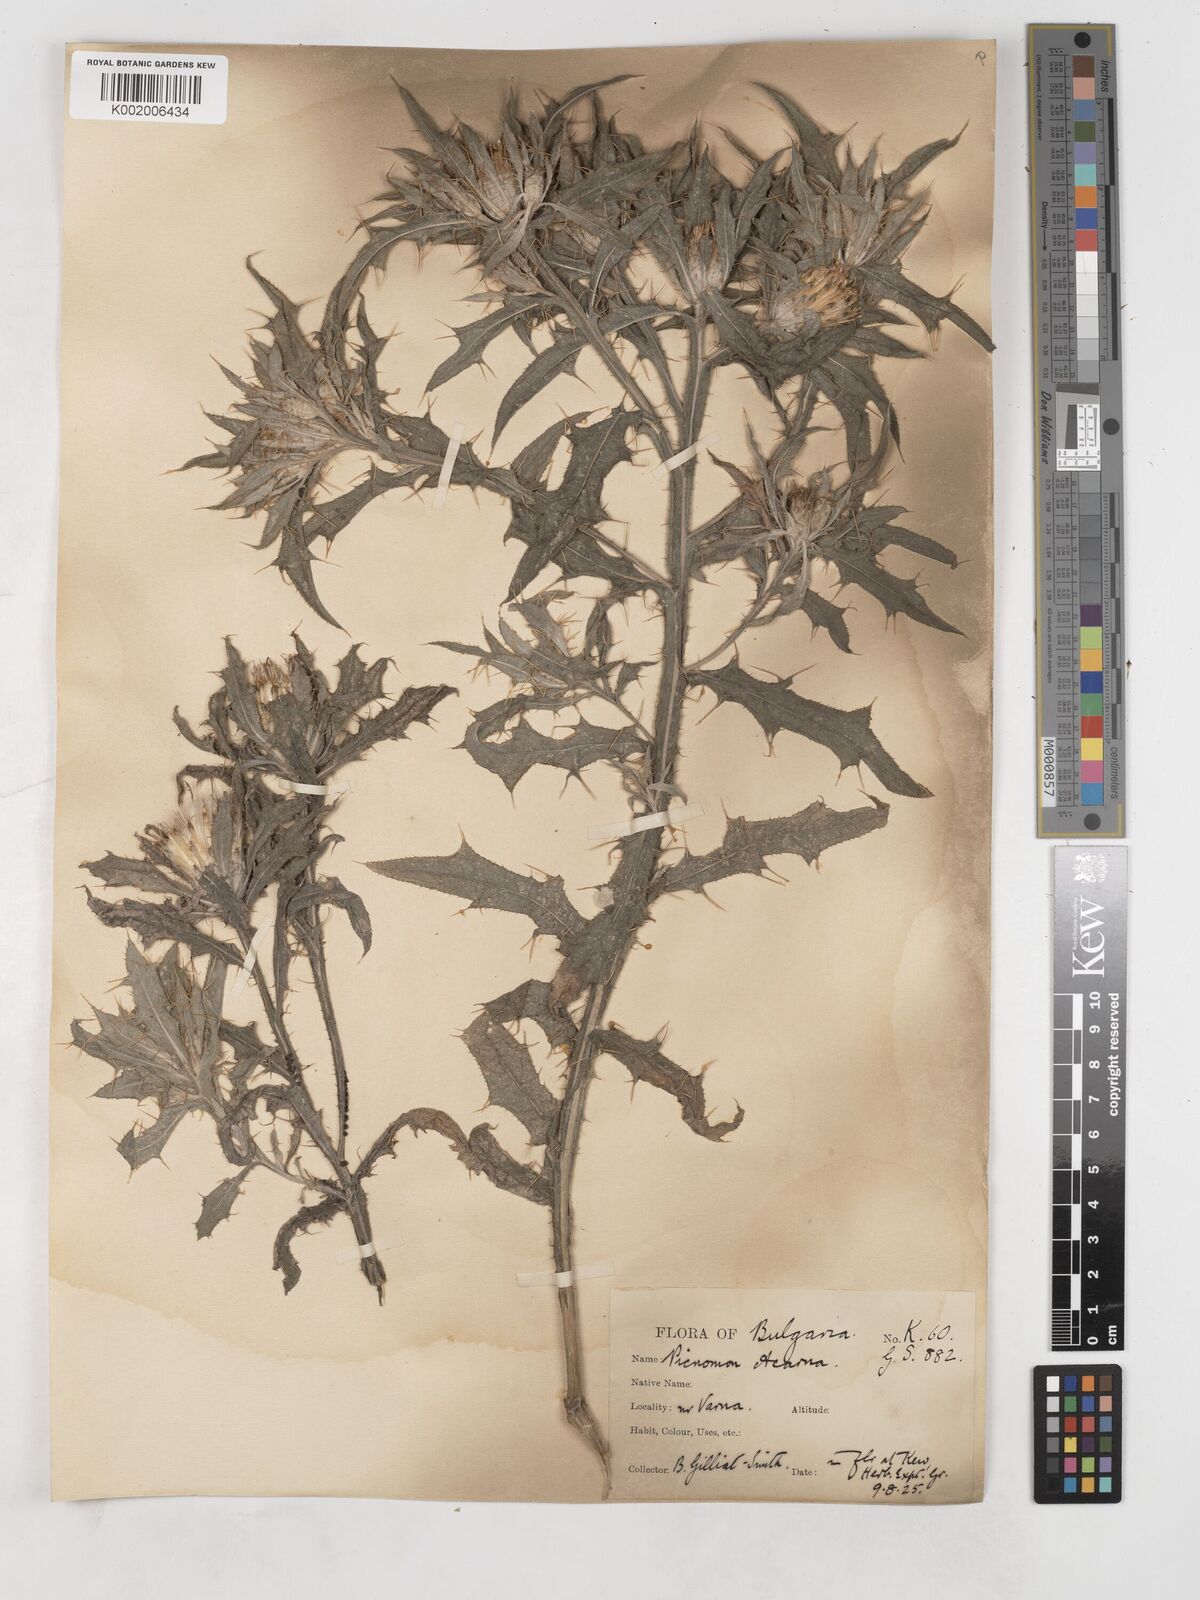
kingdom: Plantae
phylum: Tracheophyta
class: Magnoliopsida
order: Asterales
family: Asteraceae
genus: Picnomon
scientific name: Picnomon acarna
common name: Soldier thistle
